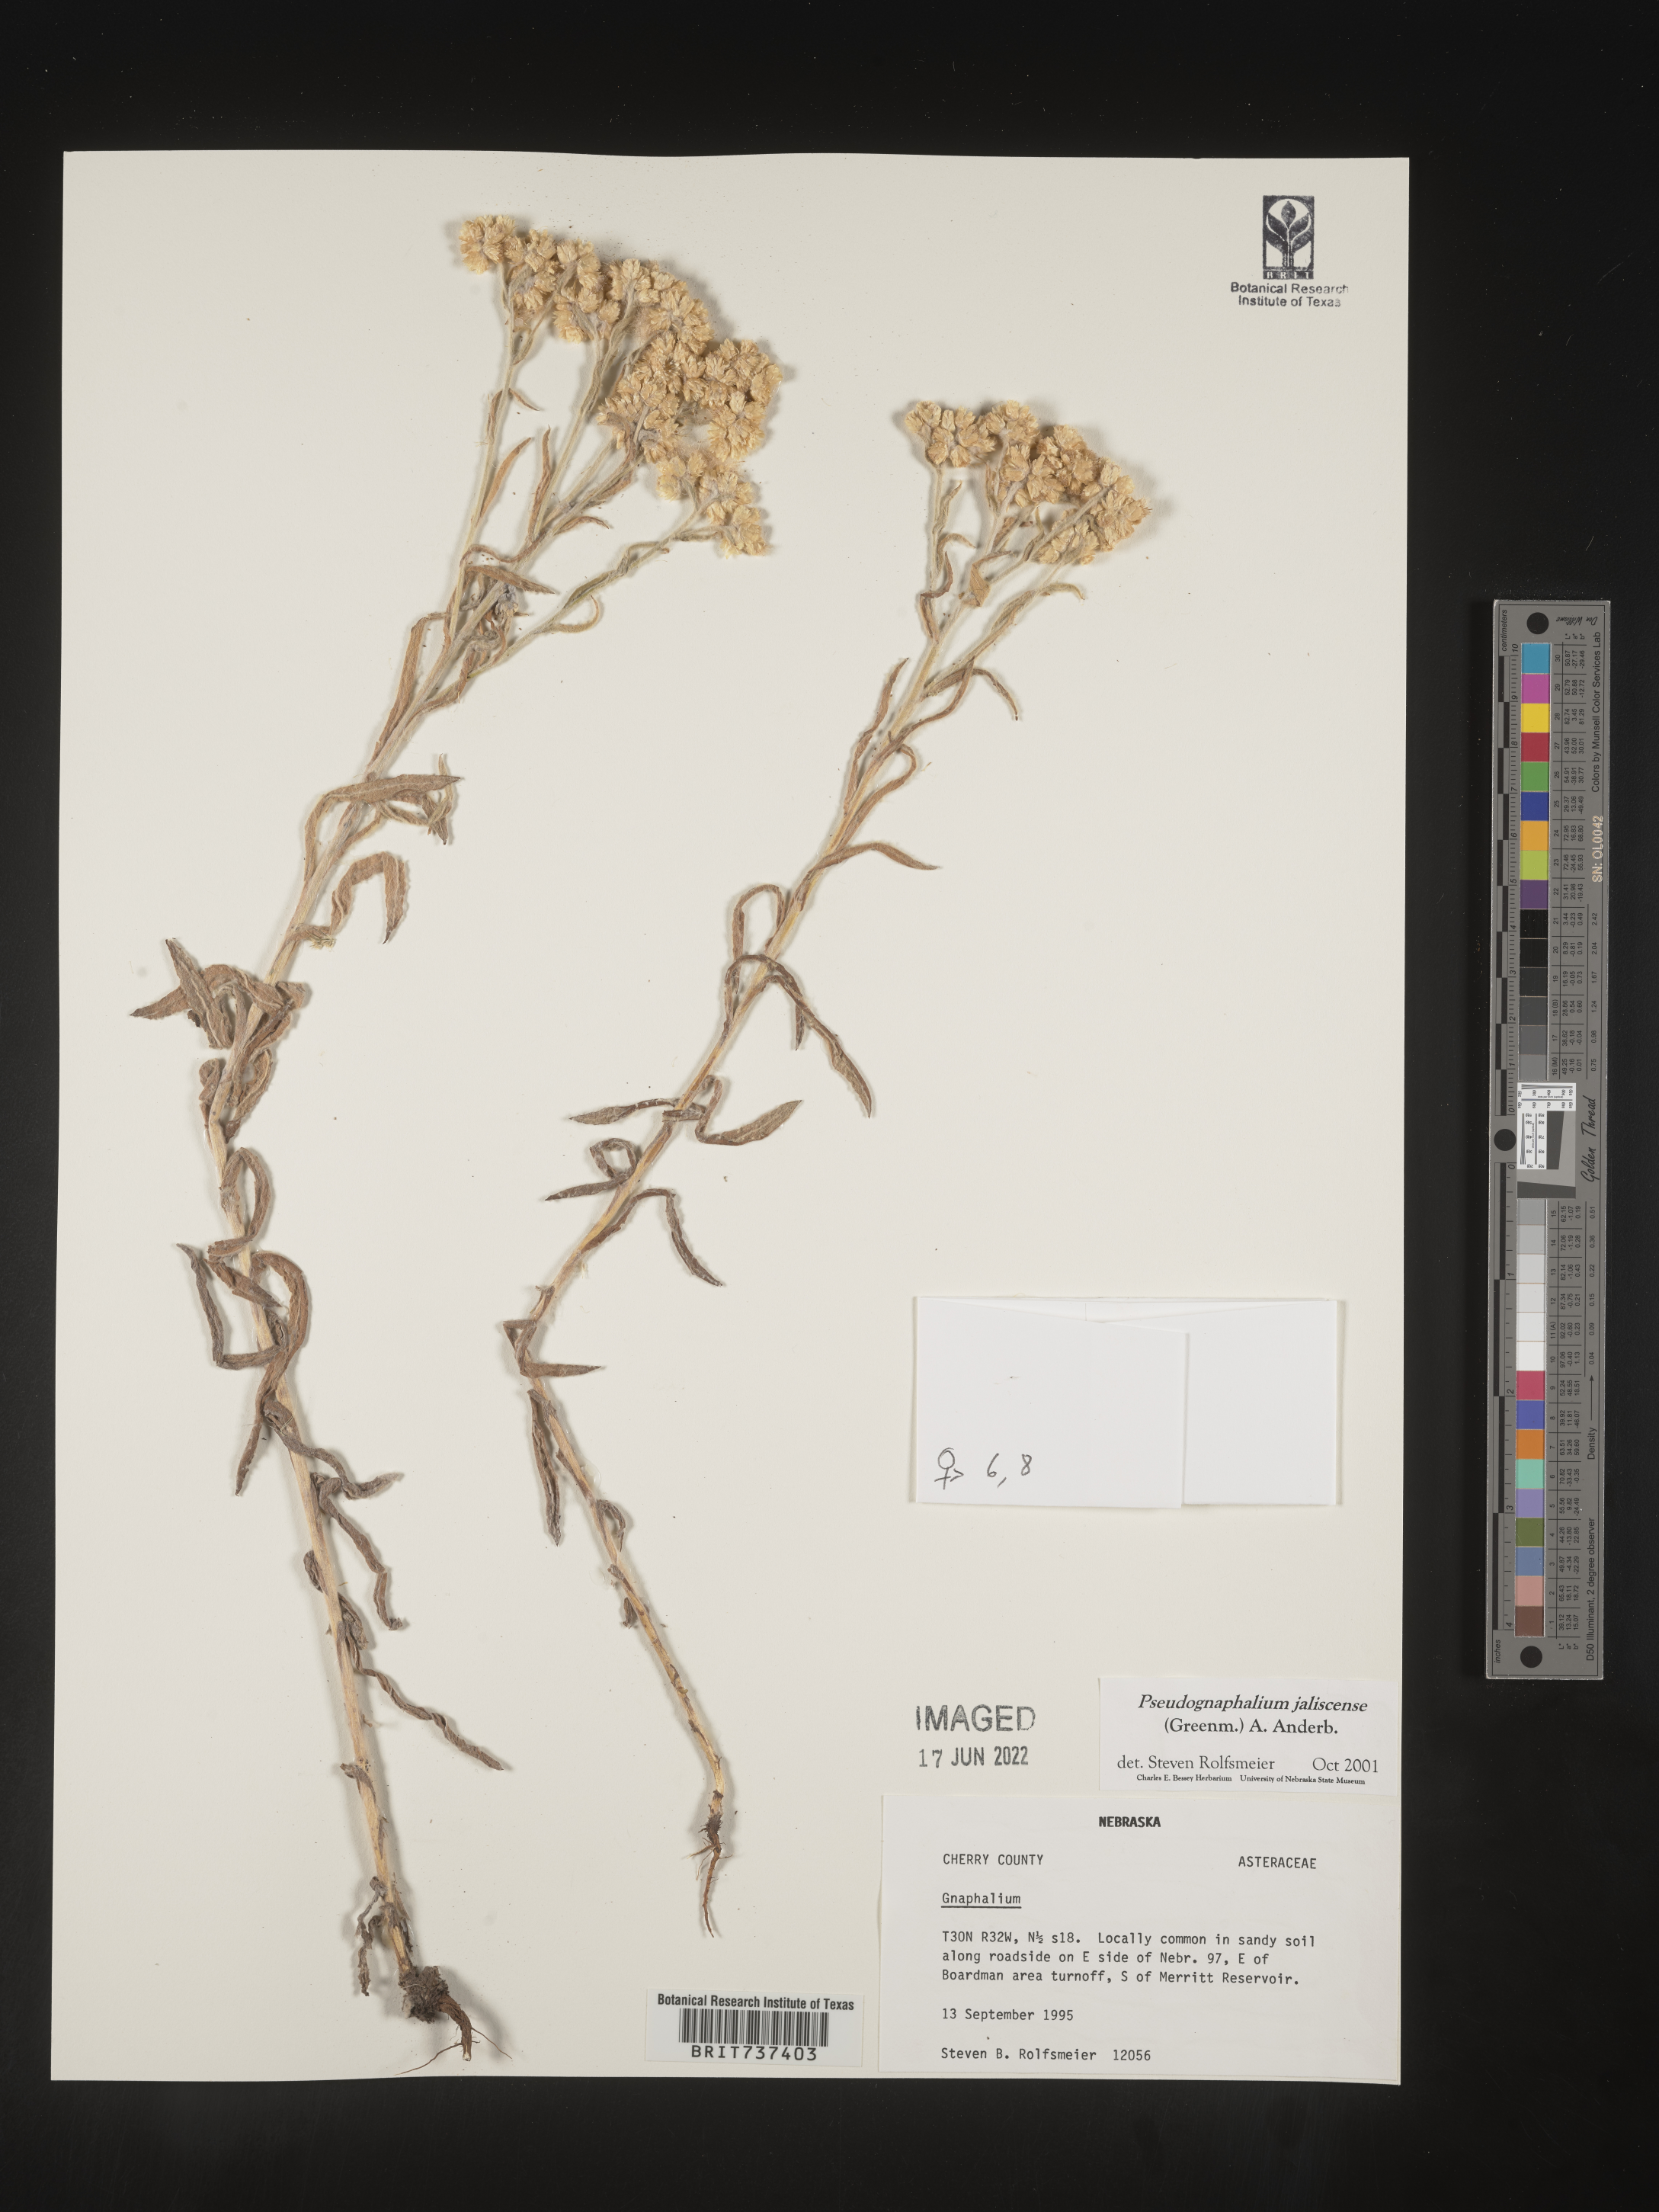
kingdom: Plantae
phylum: Tracheophyta
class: Magnoliopsida
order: Asterales
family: Asteraceae
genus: Pseudognaphalium
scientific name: Pseudognaphalium jaliscense
